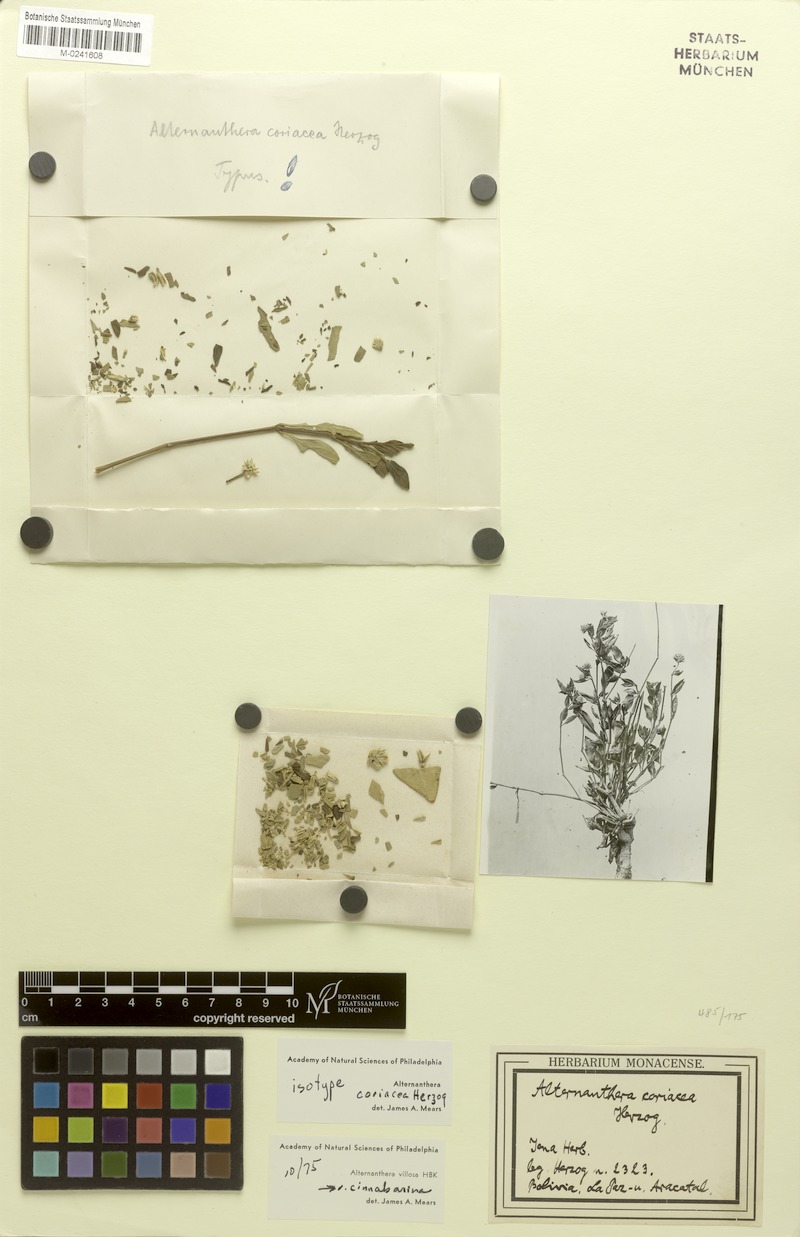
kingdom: Plantae
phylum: Tracheophyta
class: Magnoliopsida
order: Caryophyllales
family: Amaranthaceae
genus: Alternanthera
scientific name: Alternanthera flavescens
